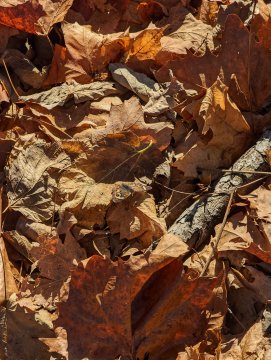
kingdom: Animalia
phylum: Arthropoda
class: Insecta
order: Lepidoptera
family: Nymphalidae
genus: Junonia
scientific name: Junonia coenia
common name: Common Buckeye
